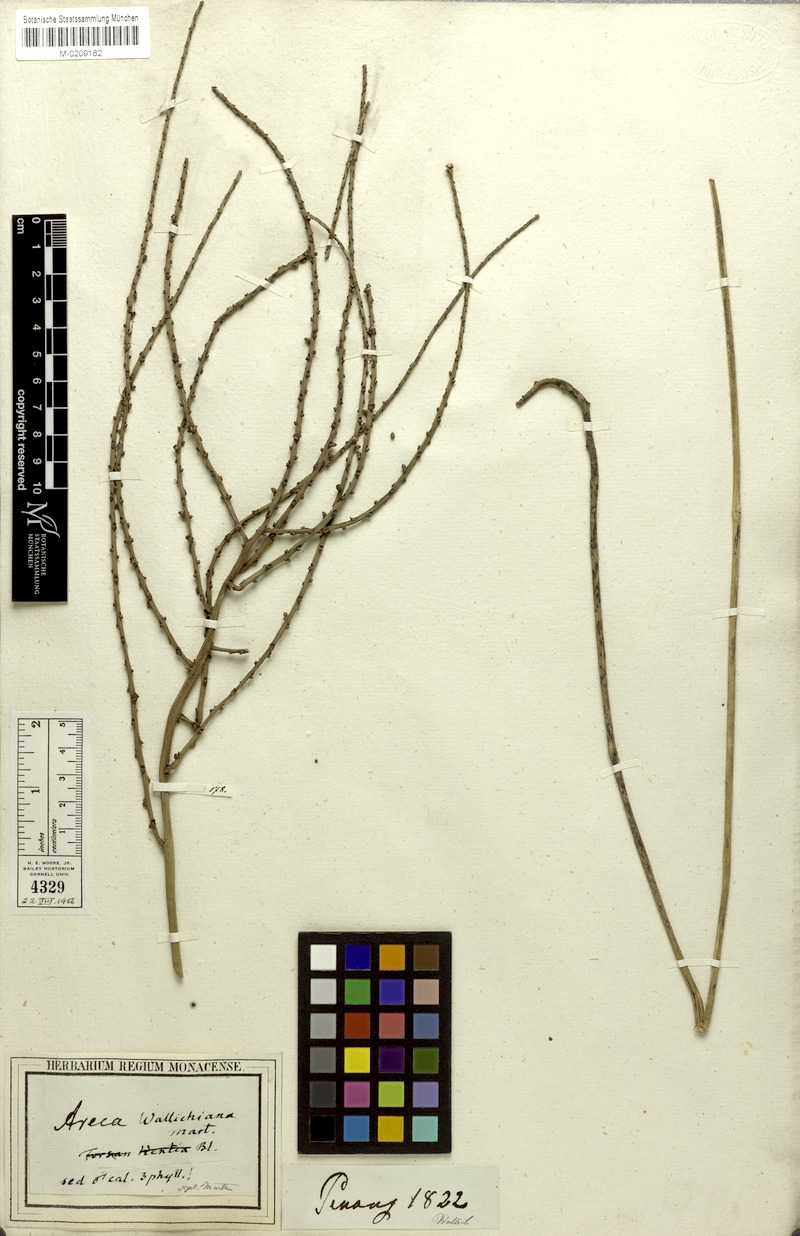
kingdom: Plantae
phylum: Tracheophyta
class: Liliopsida
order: Arecales
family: Arecaceae
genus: Iguanura
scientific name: Iguanura wallichiana
